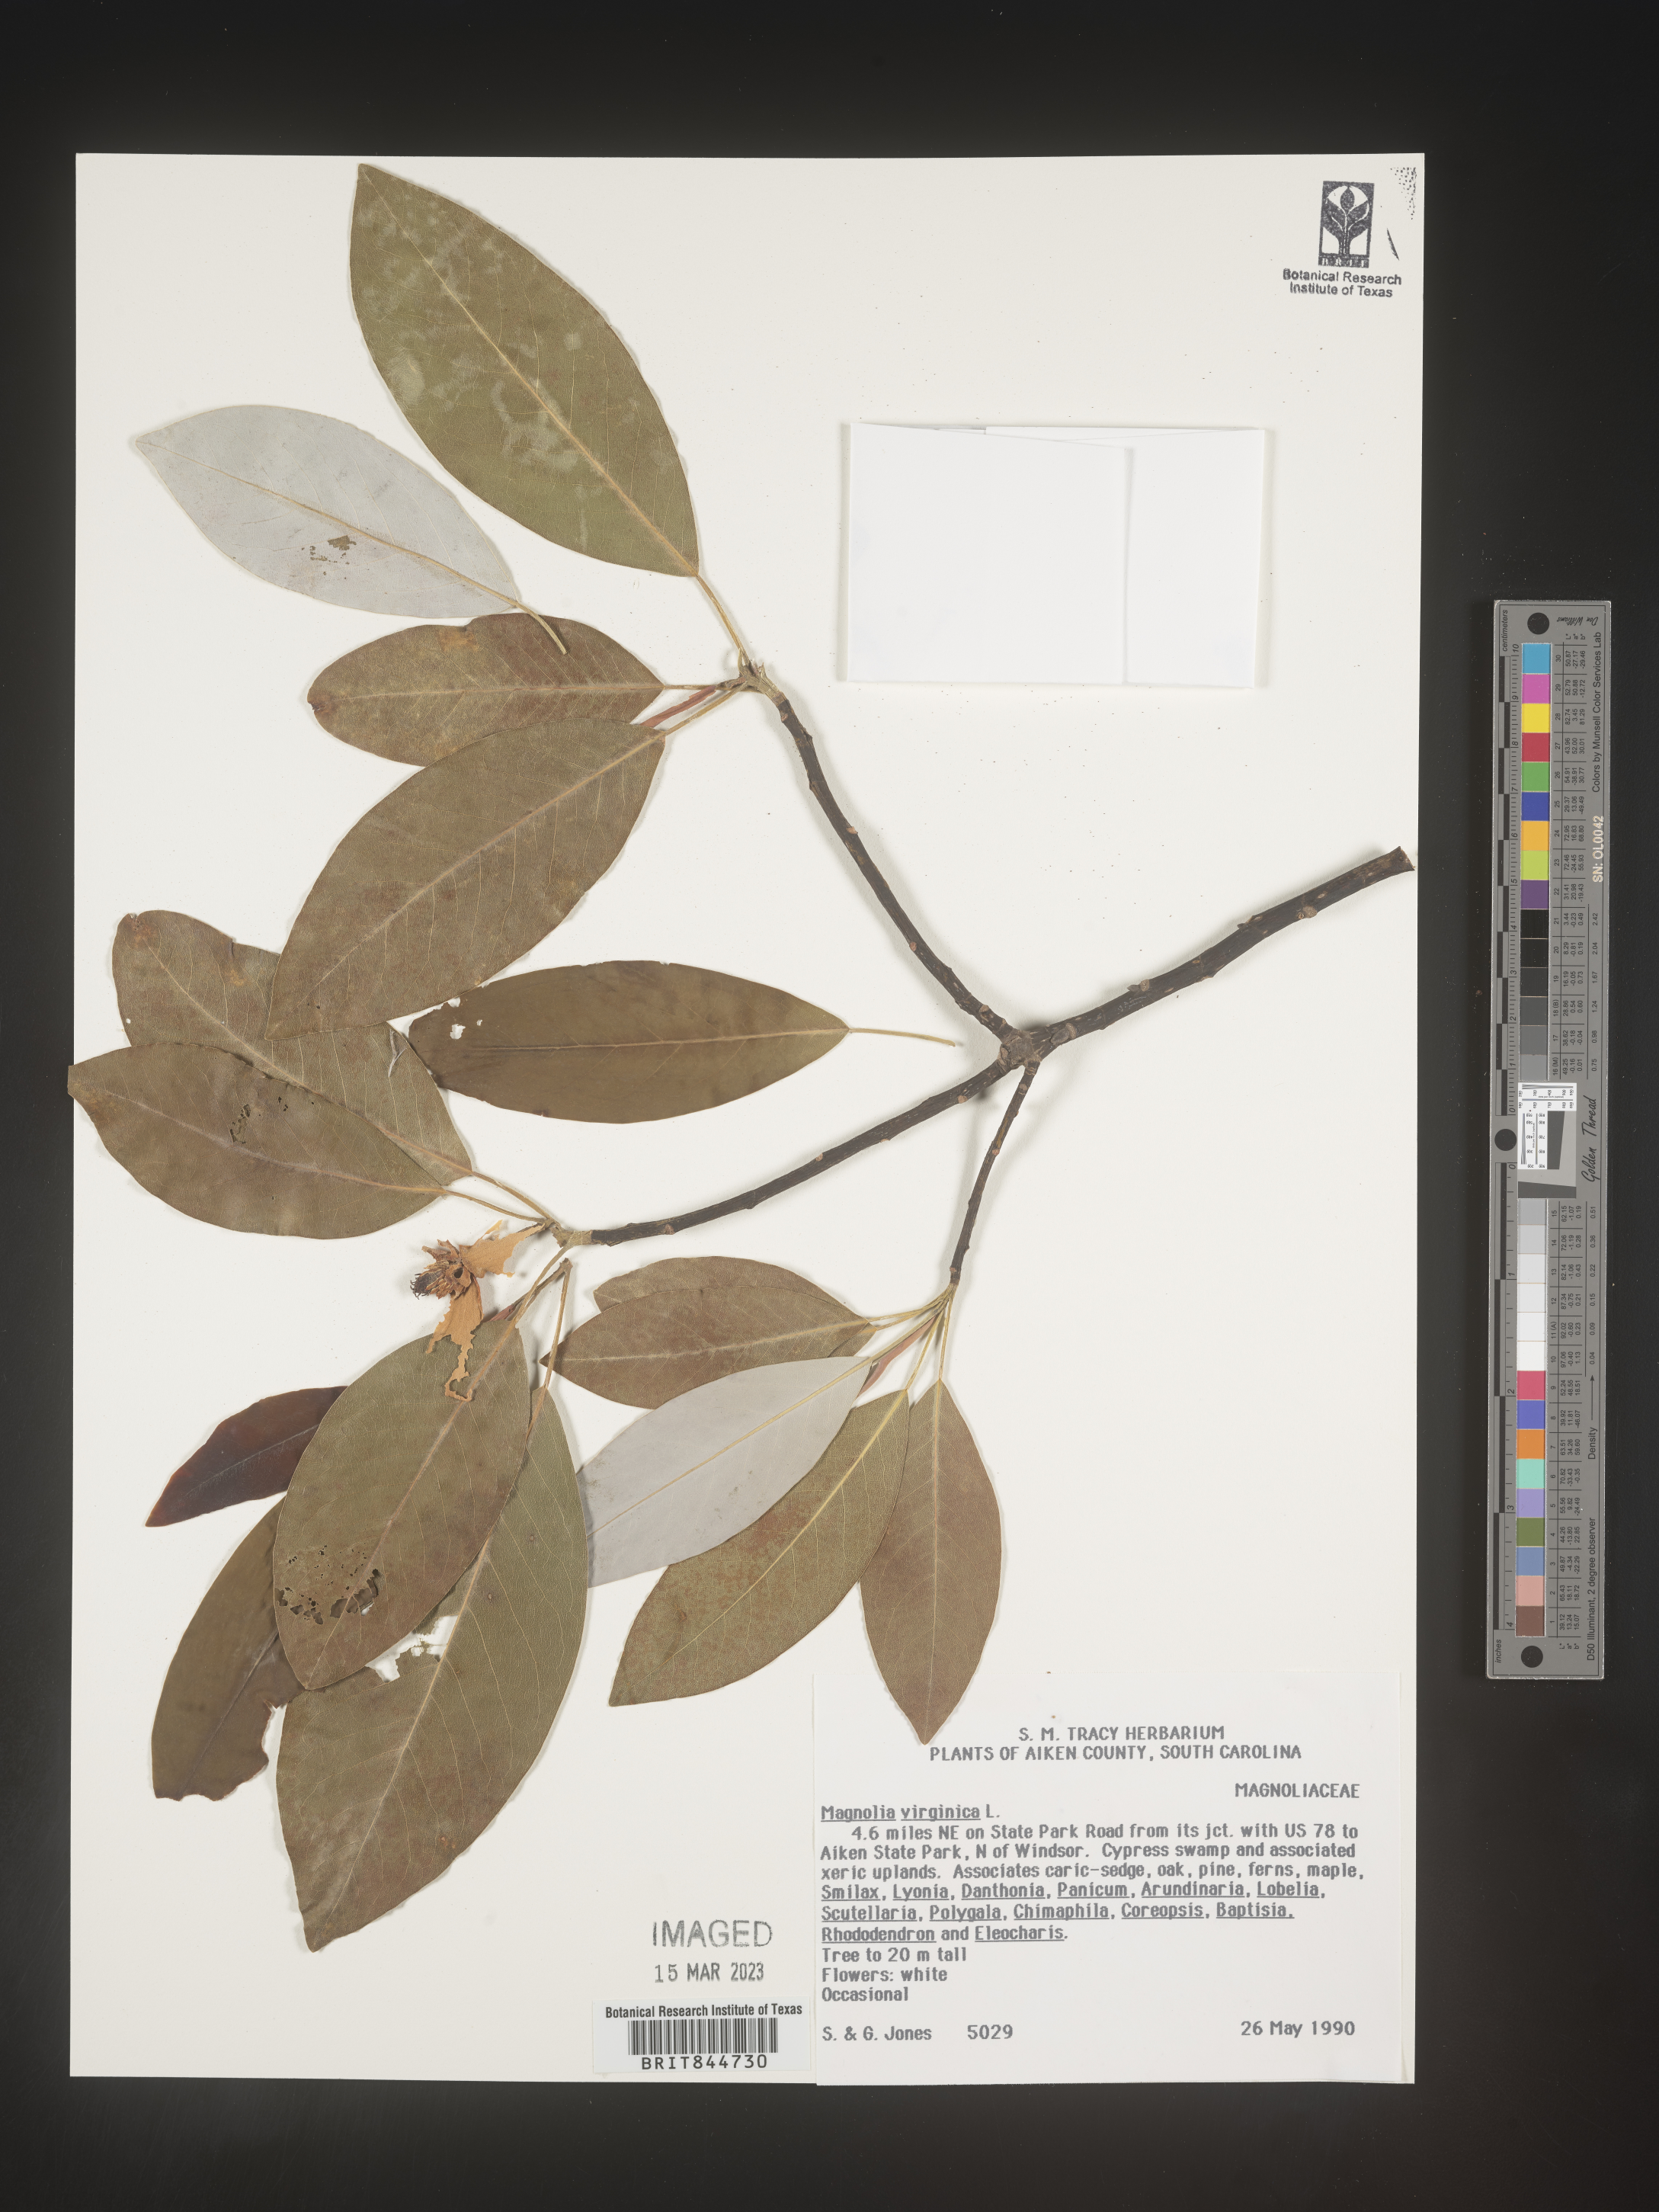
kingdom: Plantae
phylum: Tracheophyta
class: Magnoliopsida
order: Magnoliales
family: Magnoliaceae
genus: Magnolia
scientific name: Magnolia virginiana
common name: Swamp bay
